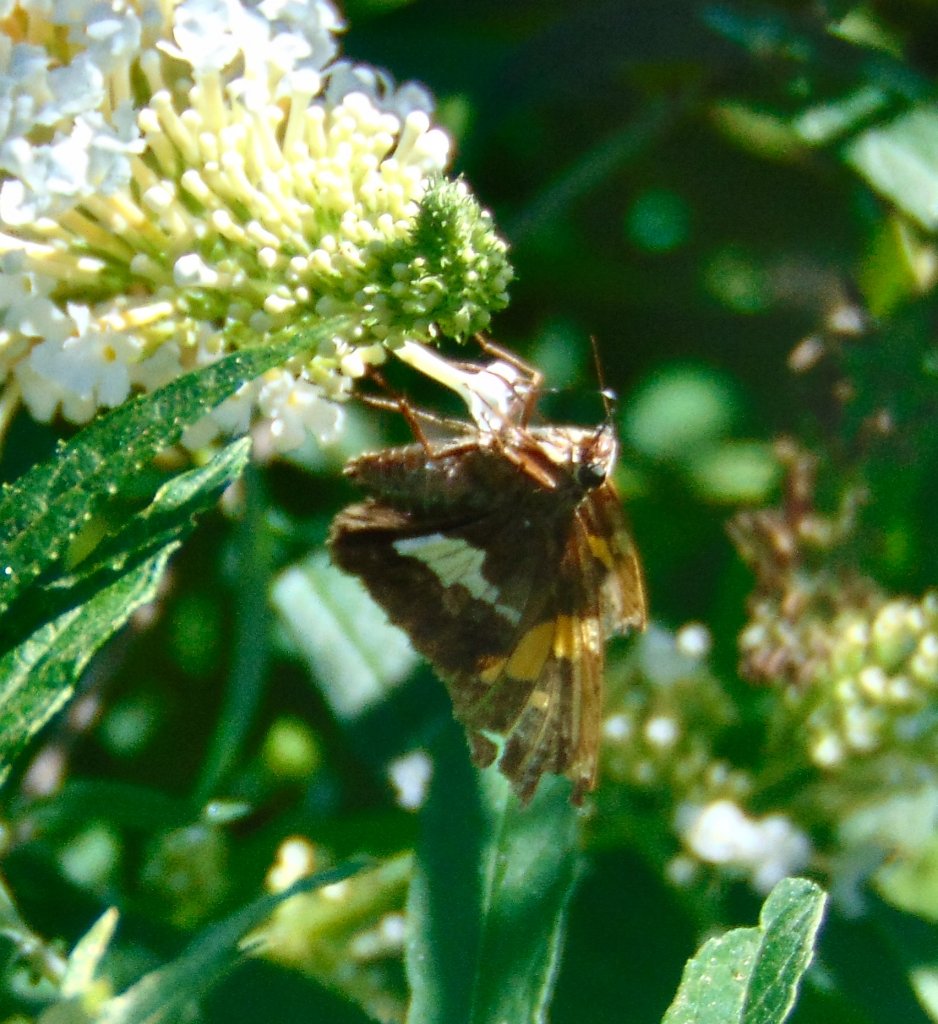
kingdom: Animalia
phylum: Arthropoda
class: Insecta
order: Lepidoptera
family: Hesperiidae
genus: Epargyreus
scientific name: Epargyreus clarus
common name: Silver-spotted Skipper
